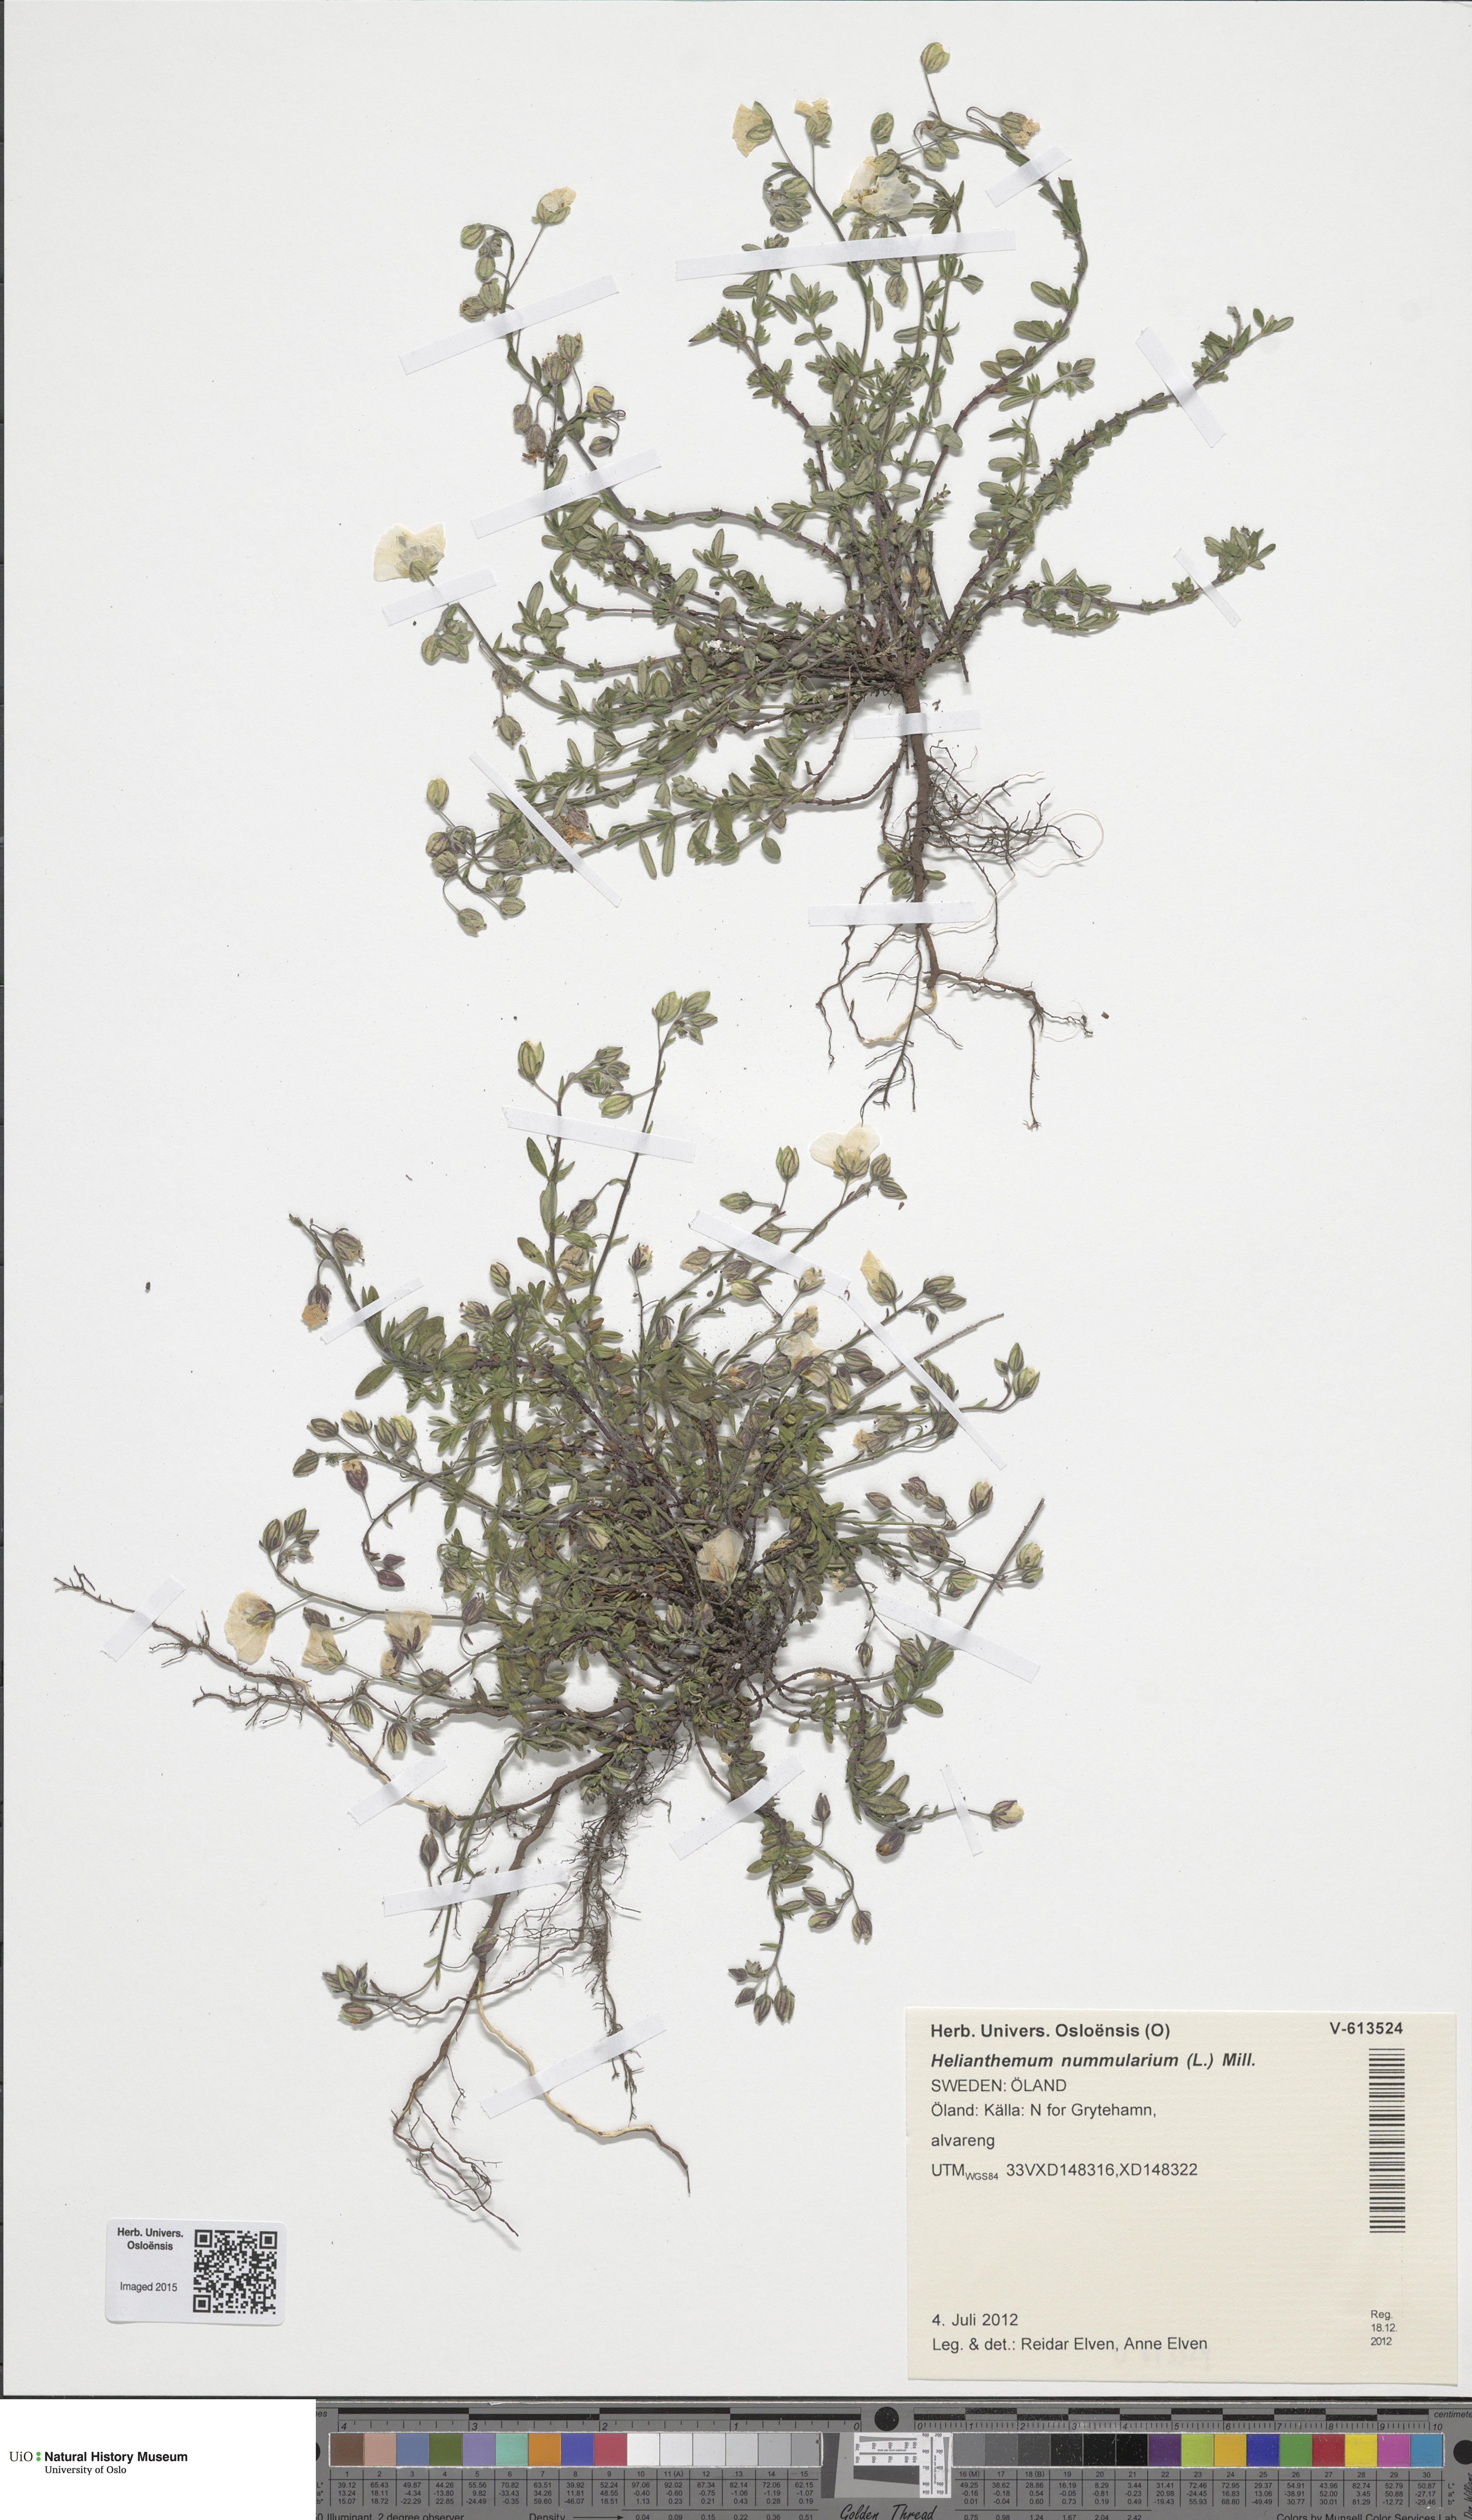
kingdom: Plantae
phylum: Tracheophyta
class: Magnoliopsida
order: Malvales
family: Cistaceae
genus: Helianthemum
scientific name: Helianthemum nummularium
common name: Common rock-rose
